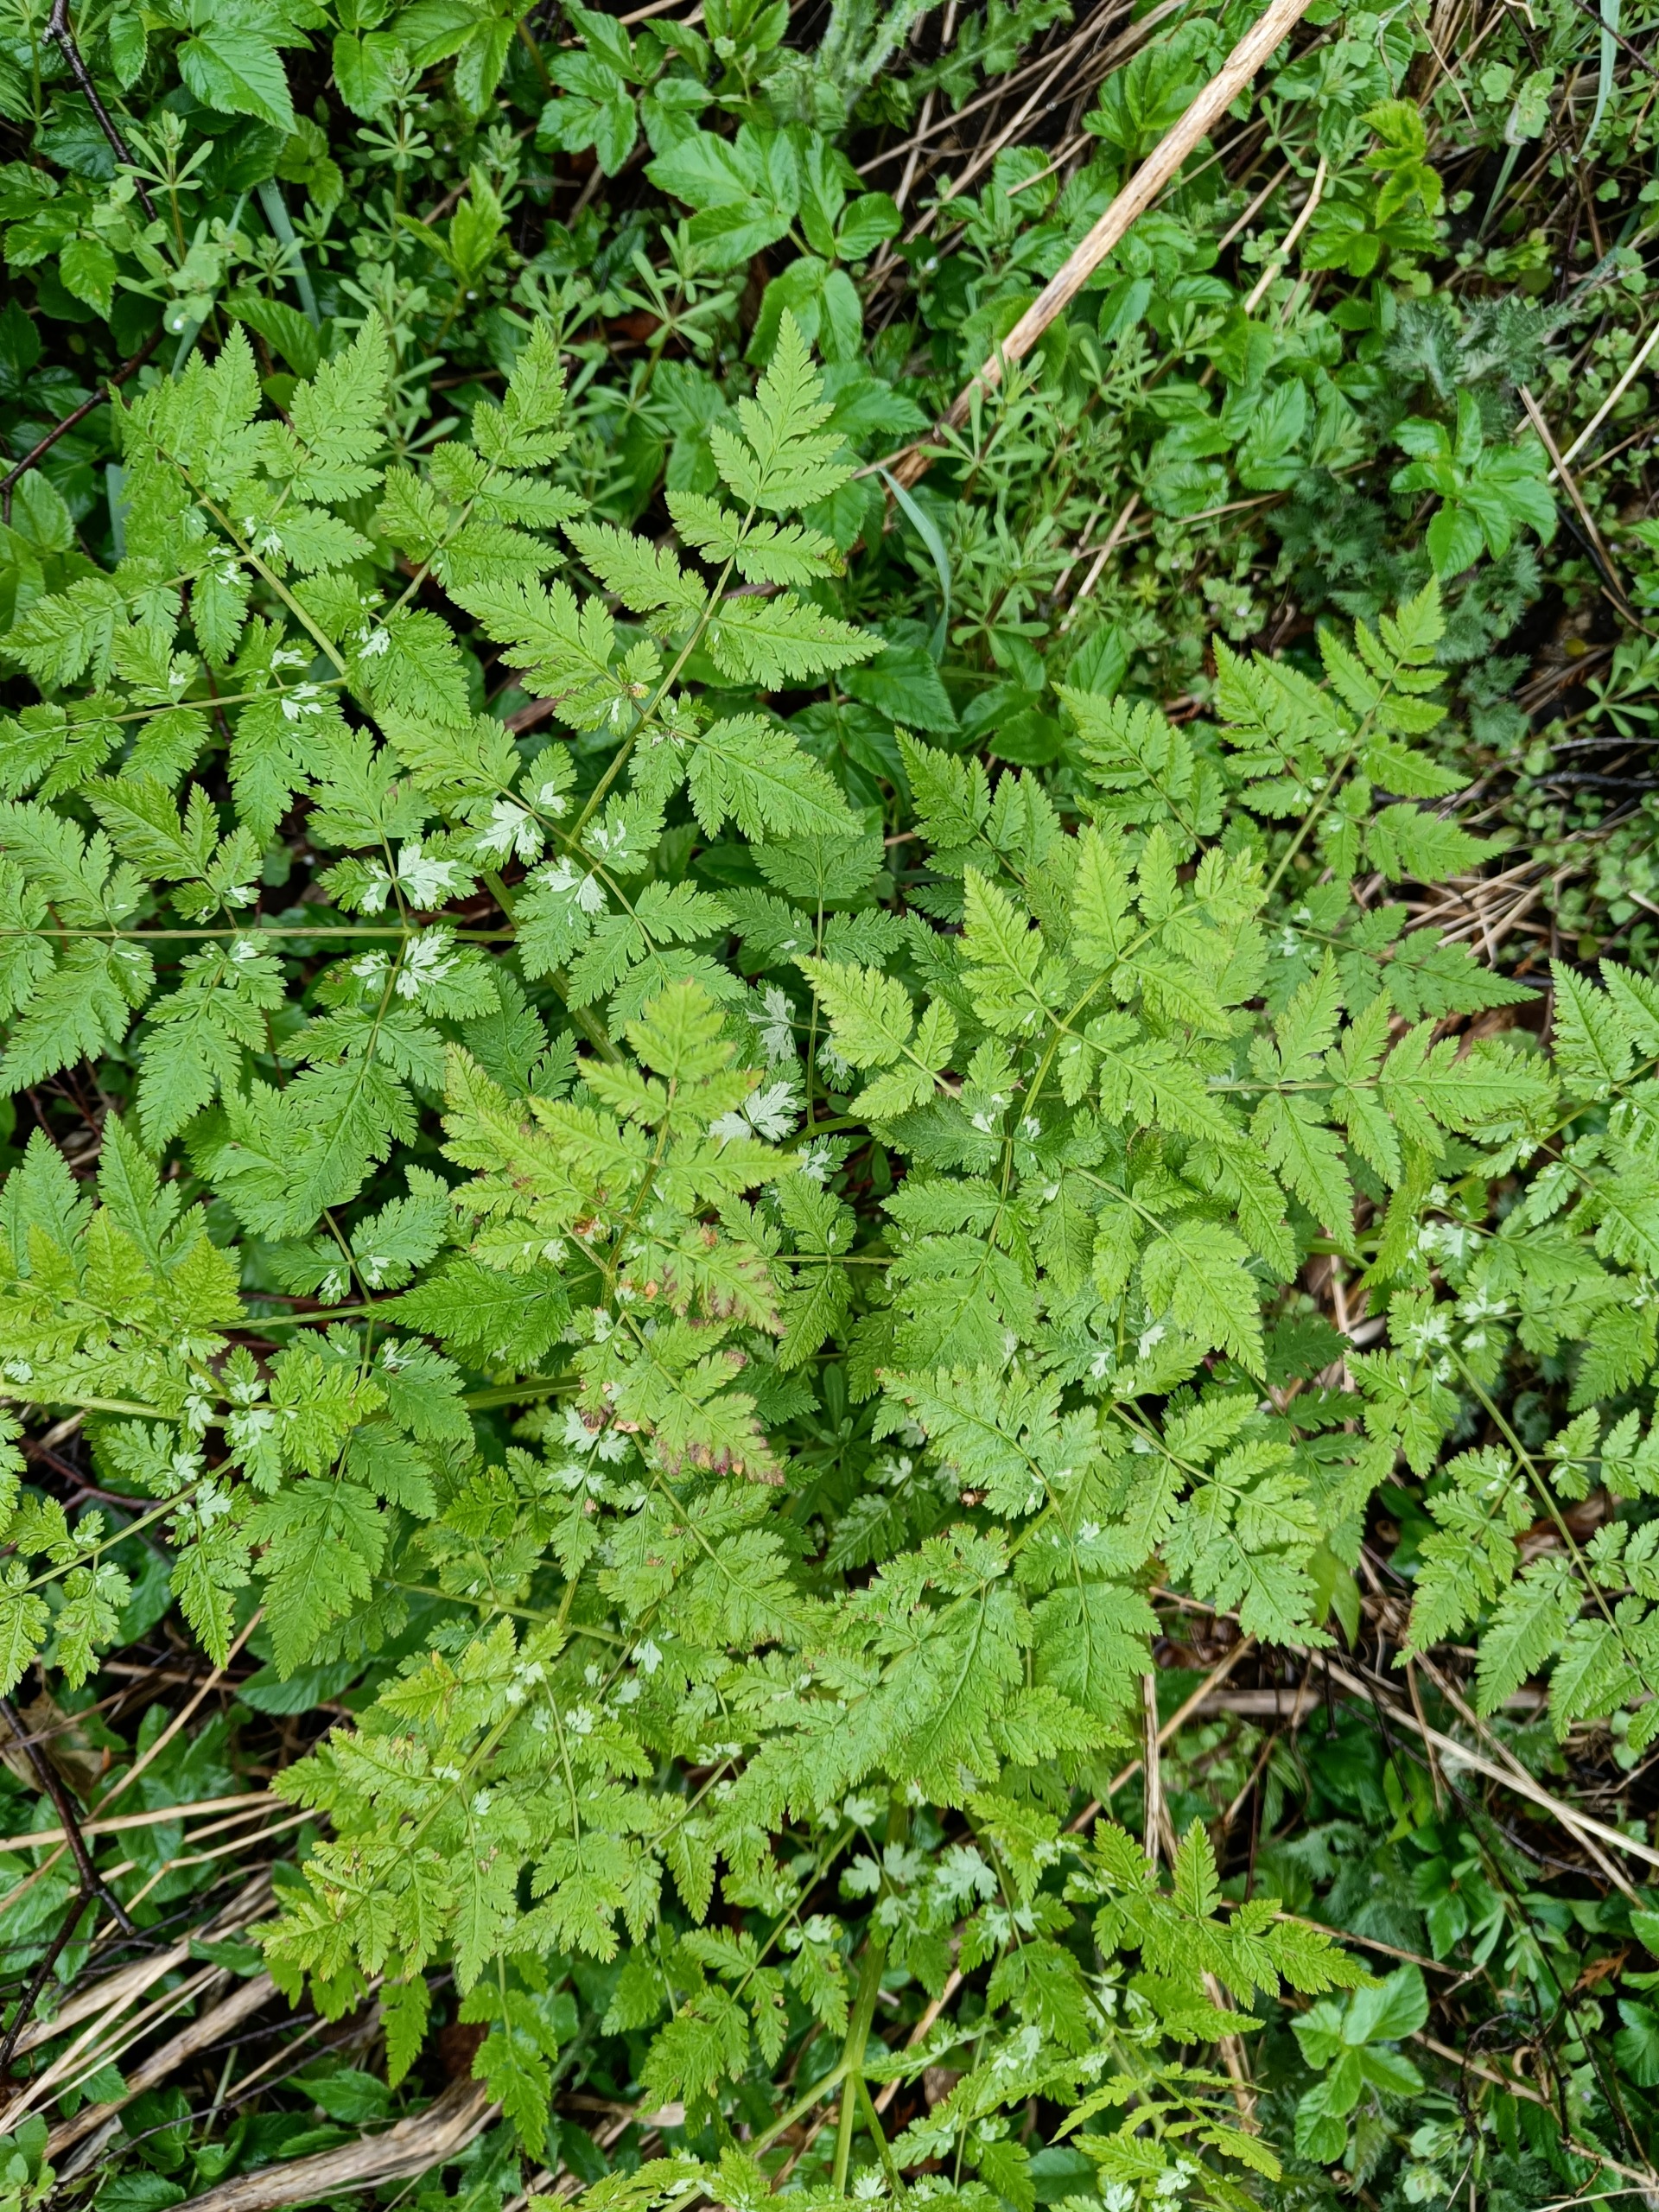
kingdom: Plantae
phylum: Tracheophyta
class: Magnoliopsida
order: Apiales
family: Apiaceae
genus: Myrrhis
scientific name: Myrrhis odorata
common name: Sødskærm
